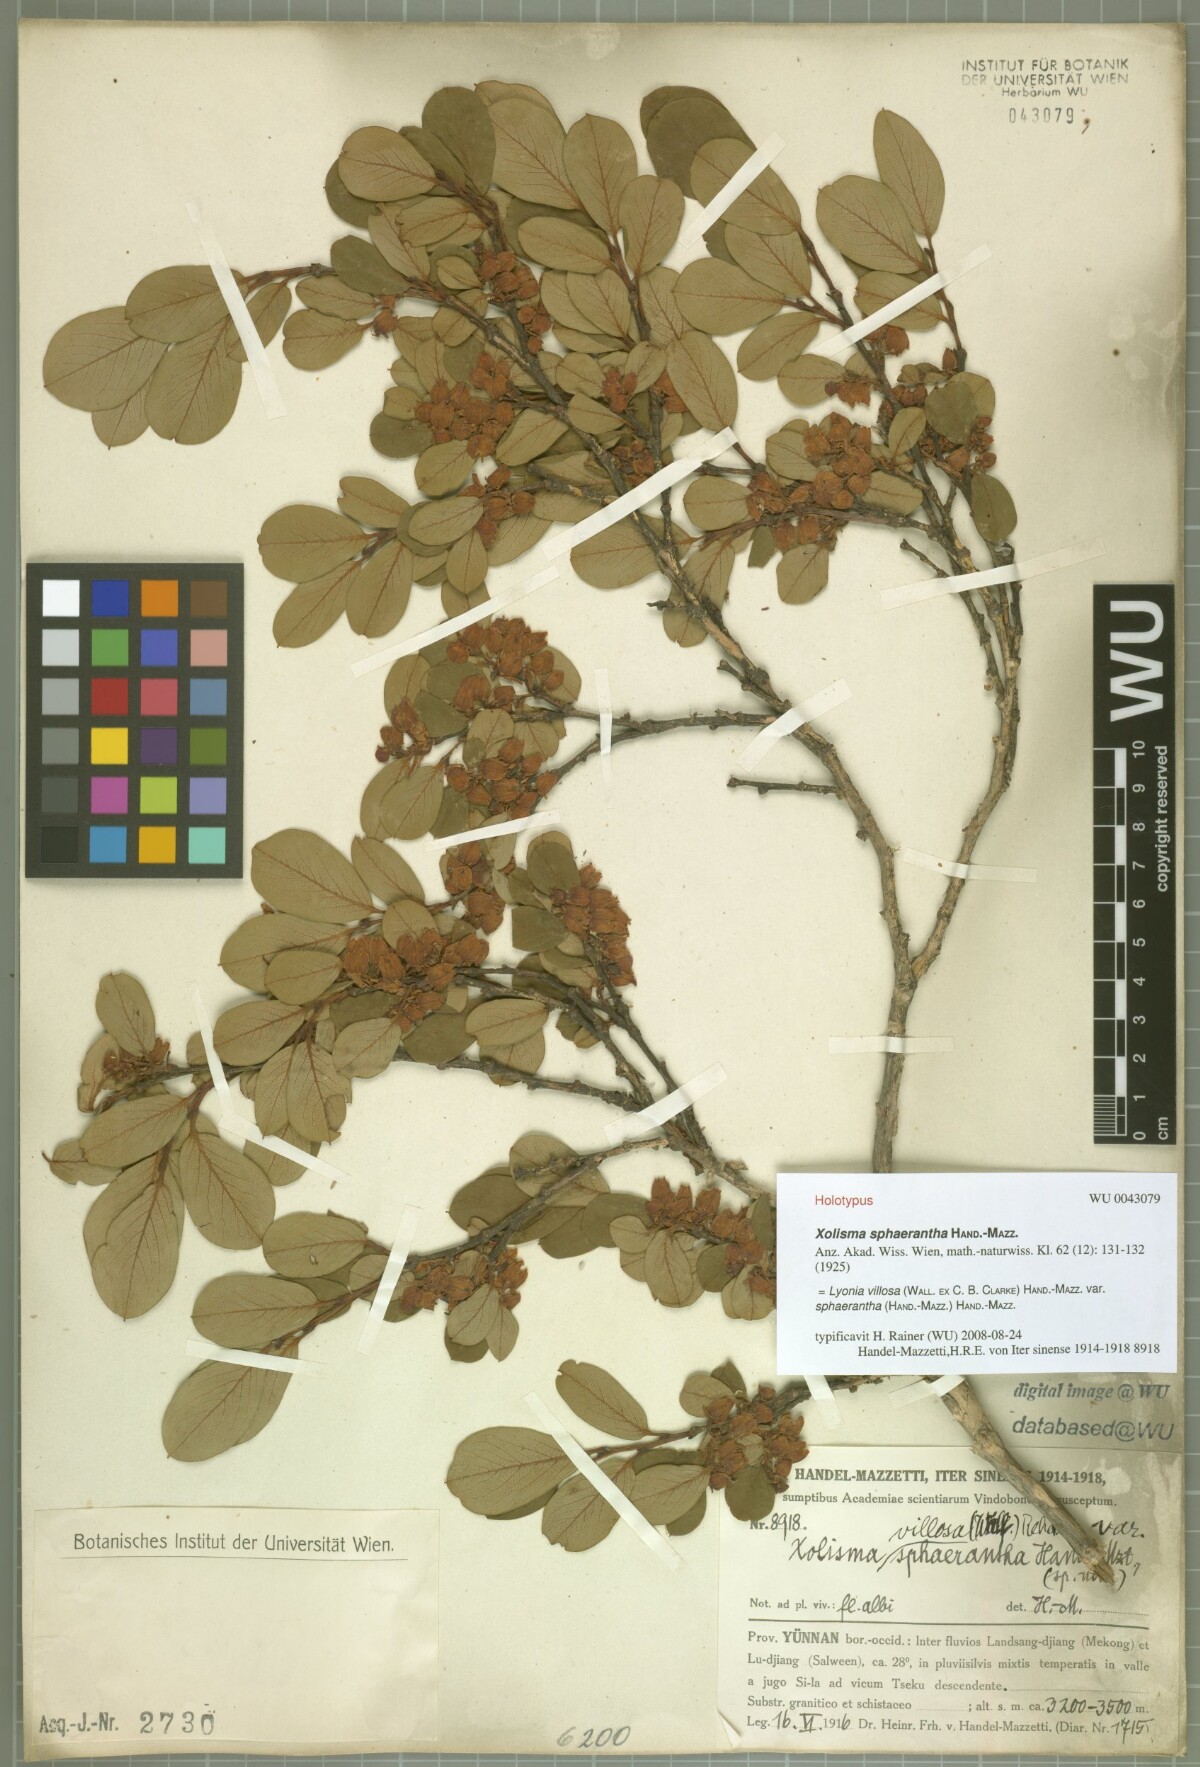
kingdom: Plantae
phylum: Tracheophyta
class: Magnoliopsida
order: Ericales
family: Ericaceae
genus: Lyonia
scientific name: Lyonia villosa
